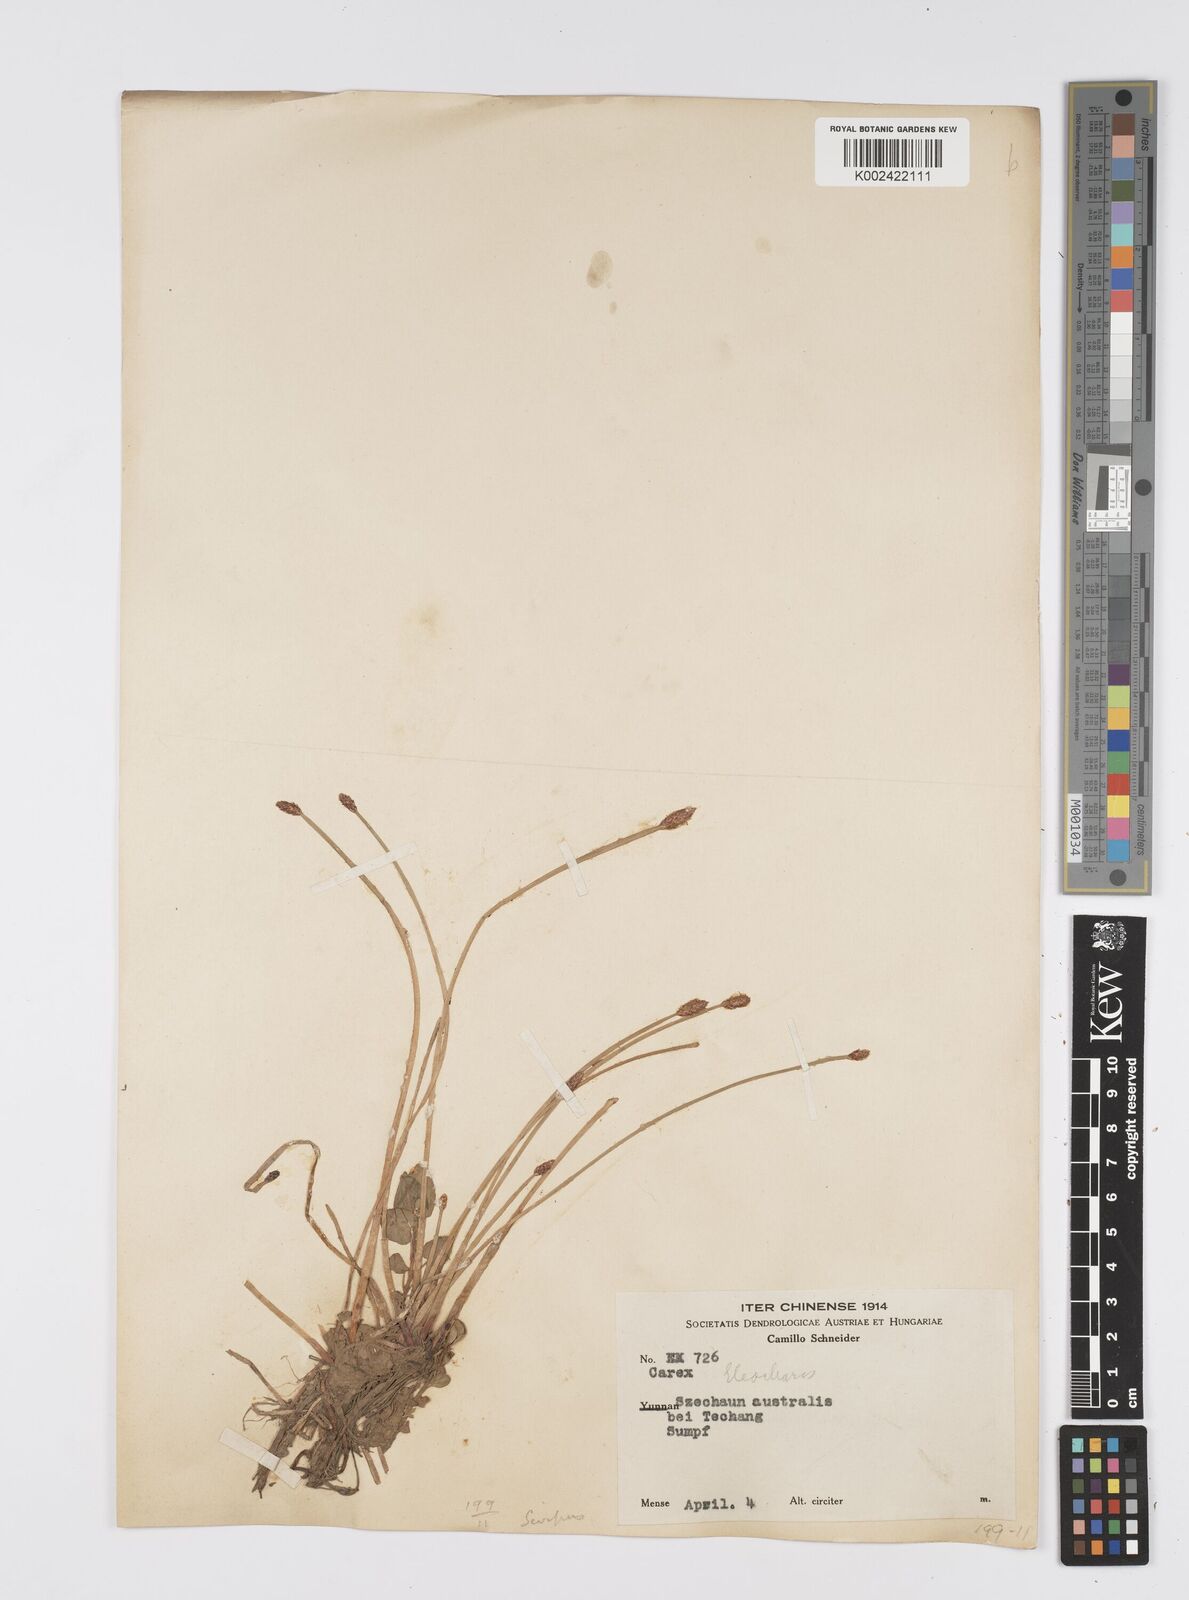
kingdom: Plantae
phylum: Tracheophyta
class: Liliopsida
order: Poales
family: Cyperaceae
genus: Eleocharis
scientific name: Eleocharis palustris
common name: Common spike-rush
